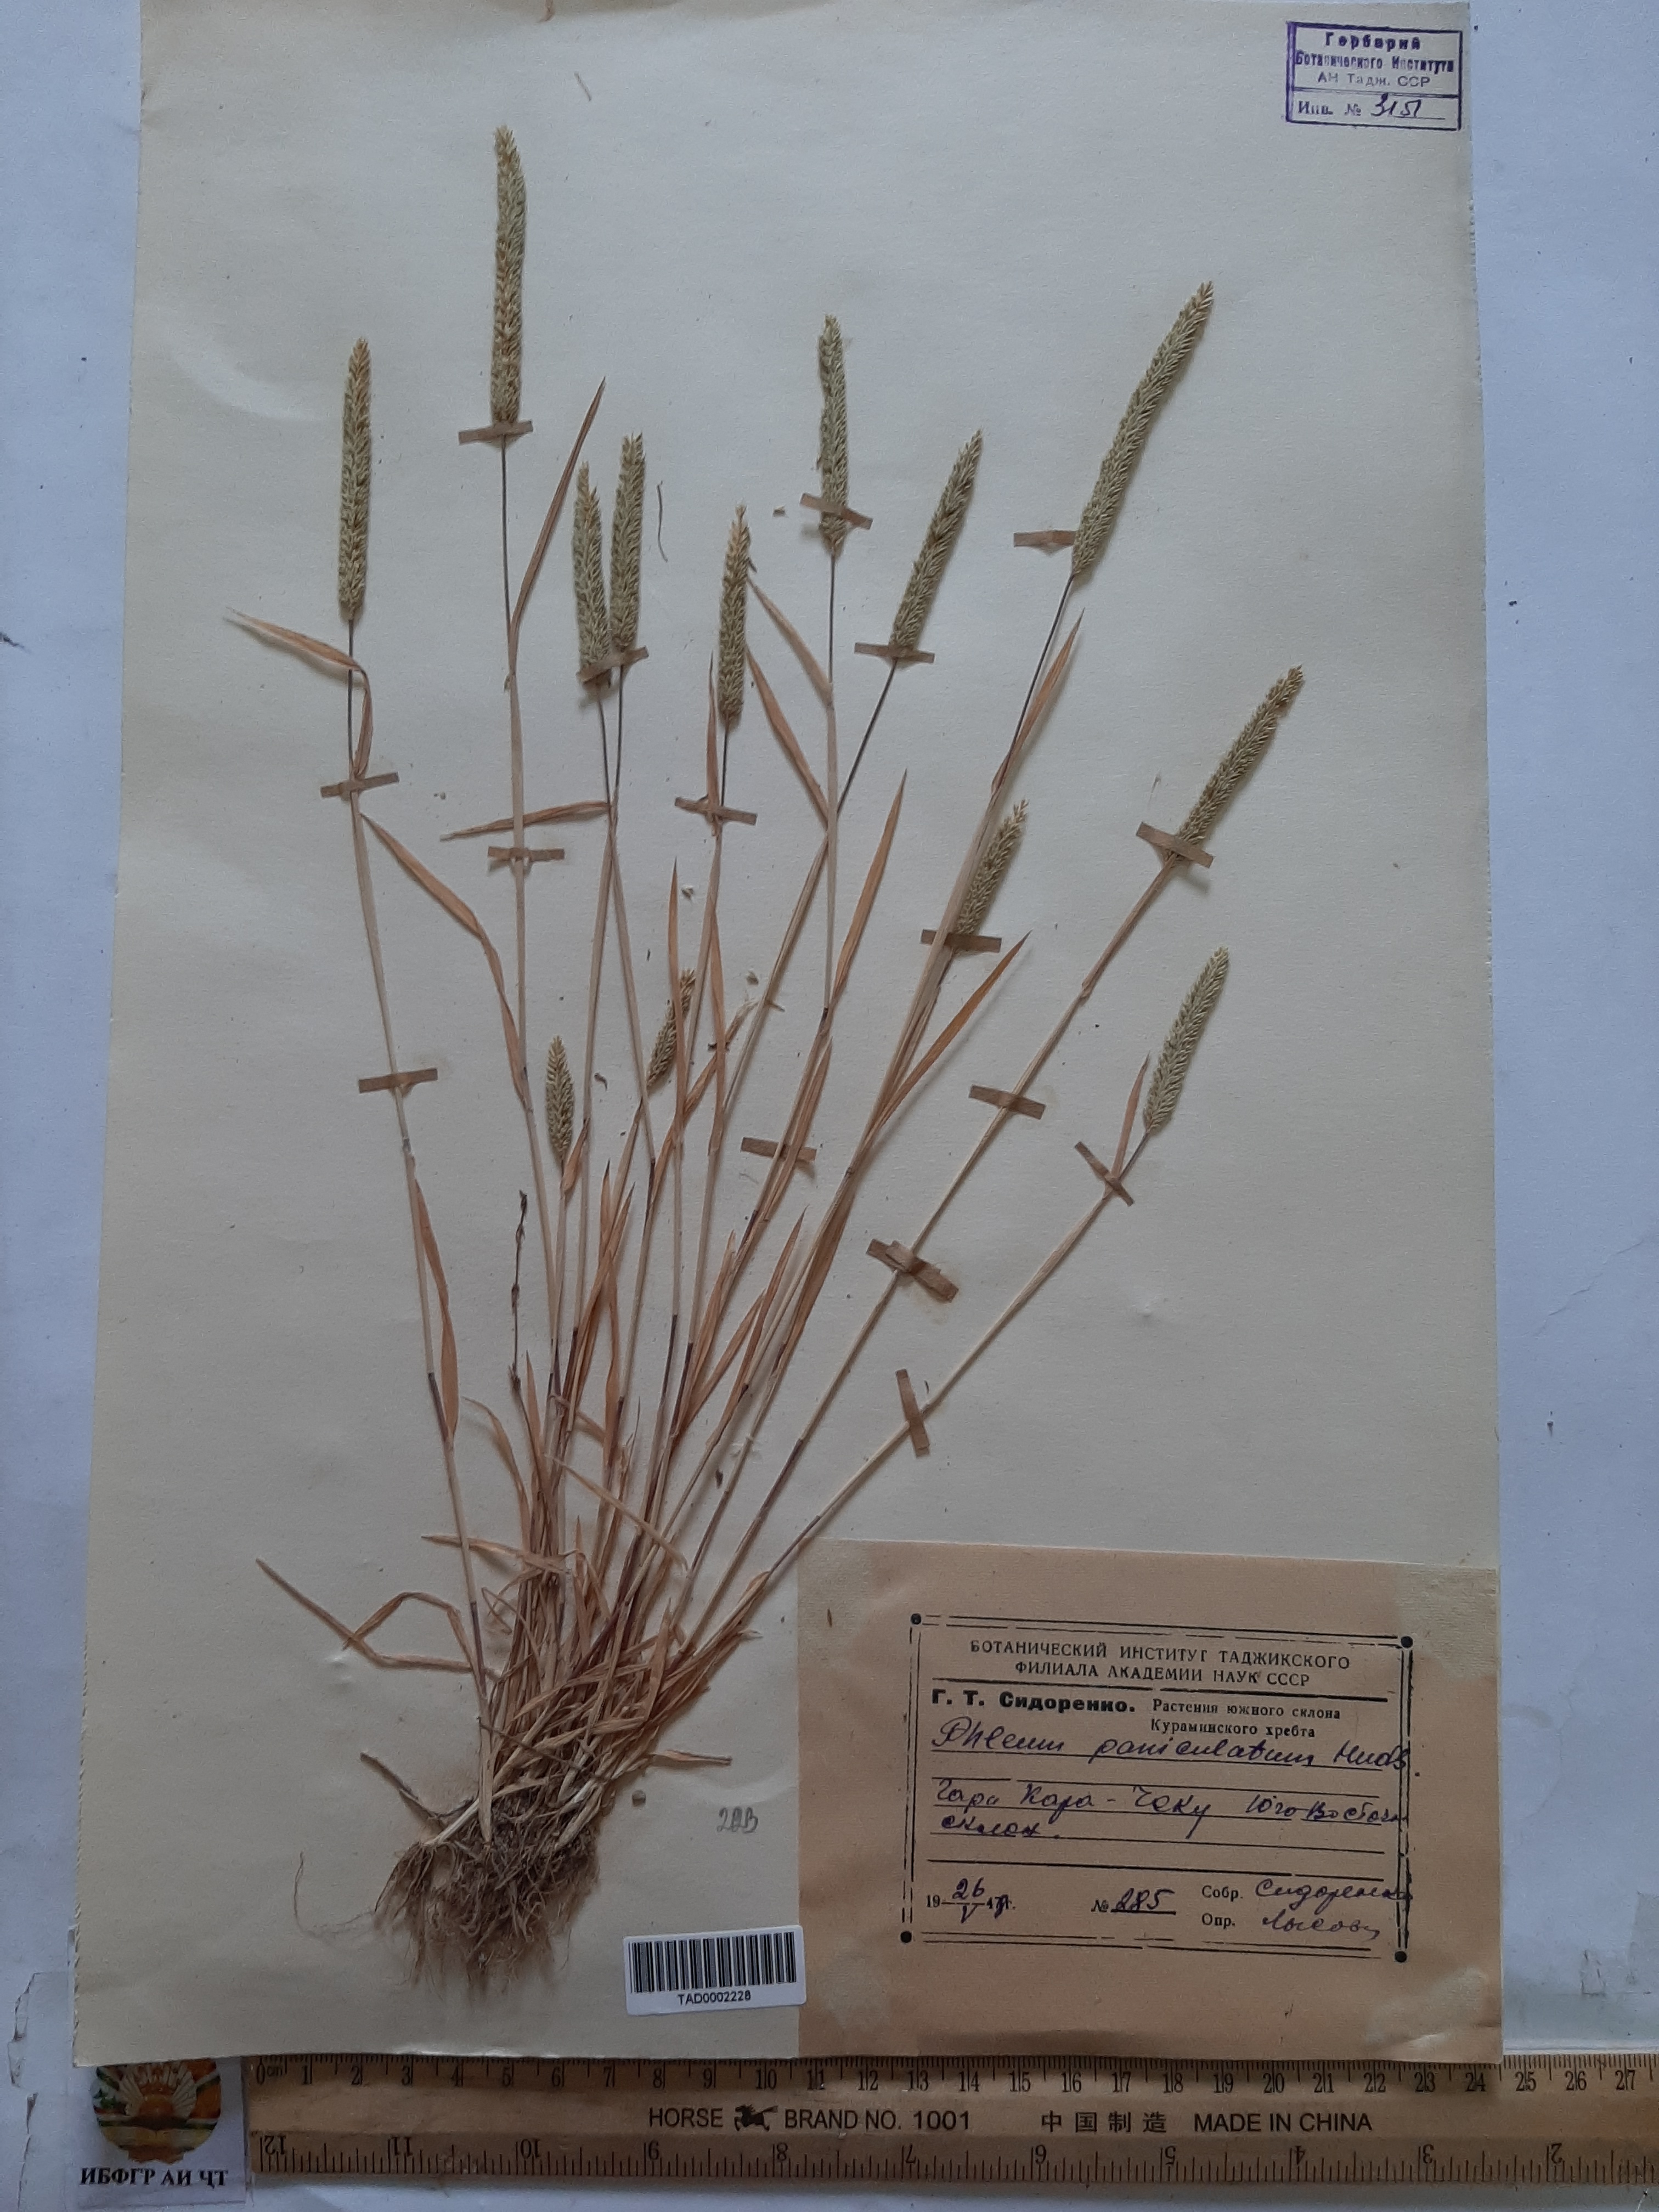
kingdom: Plantae
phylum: Tracheophyta
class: Liliopsida
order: Poales
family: Poaceae
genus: Phleum
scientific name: Phleum paniculatum
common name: British timothy
